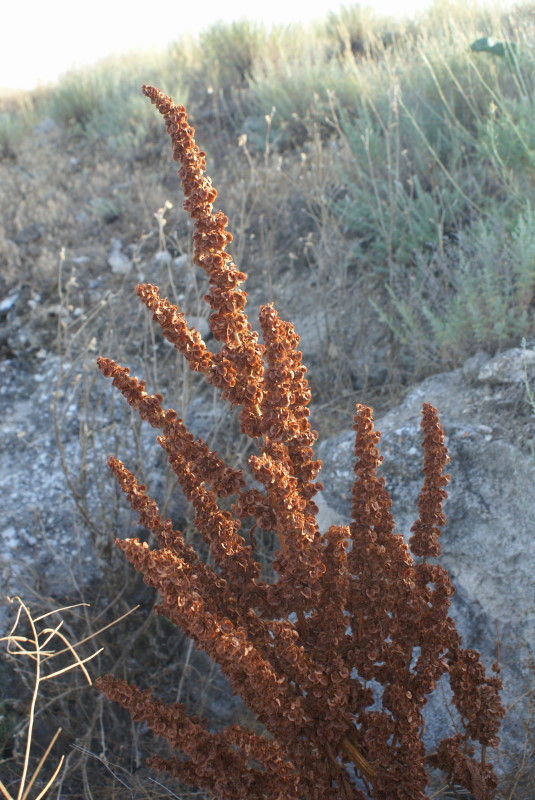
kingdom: Plantae
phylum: Tracheophyta
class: Magnoliopsida
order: Caryophyllales
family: Polygonaceae
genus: Rumex
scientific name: Rumex
